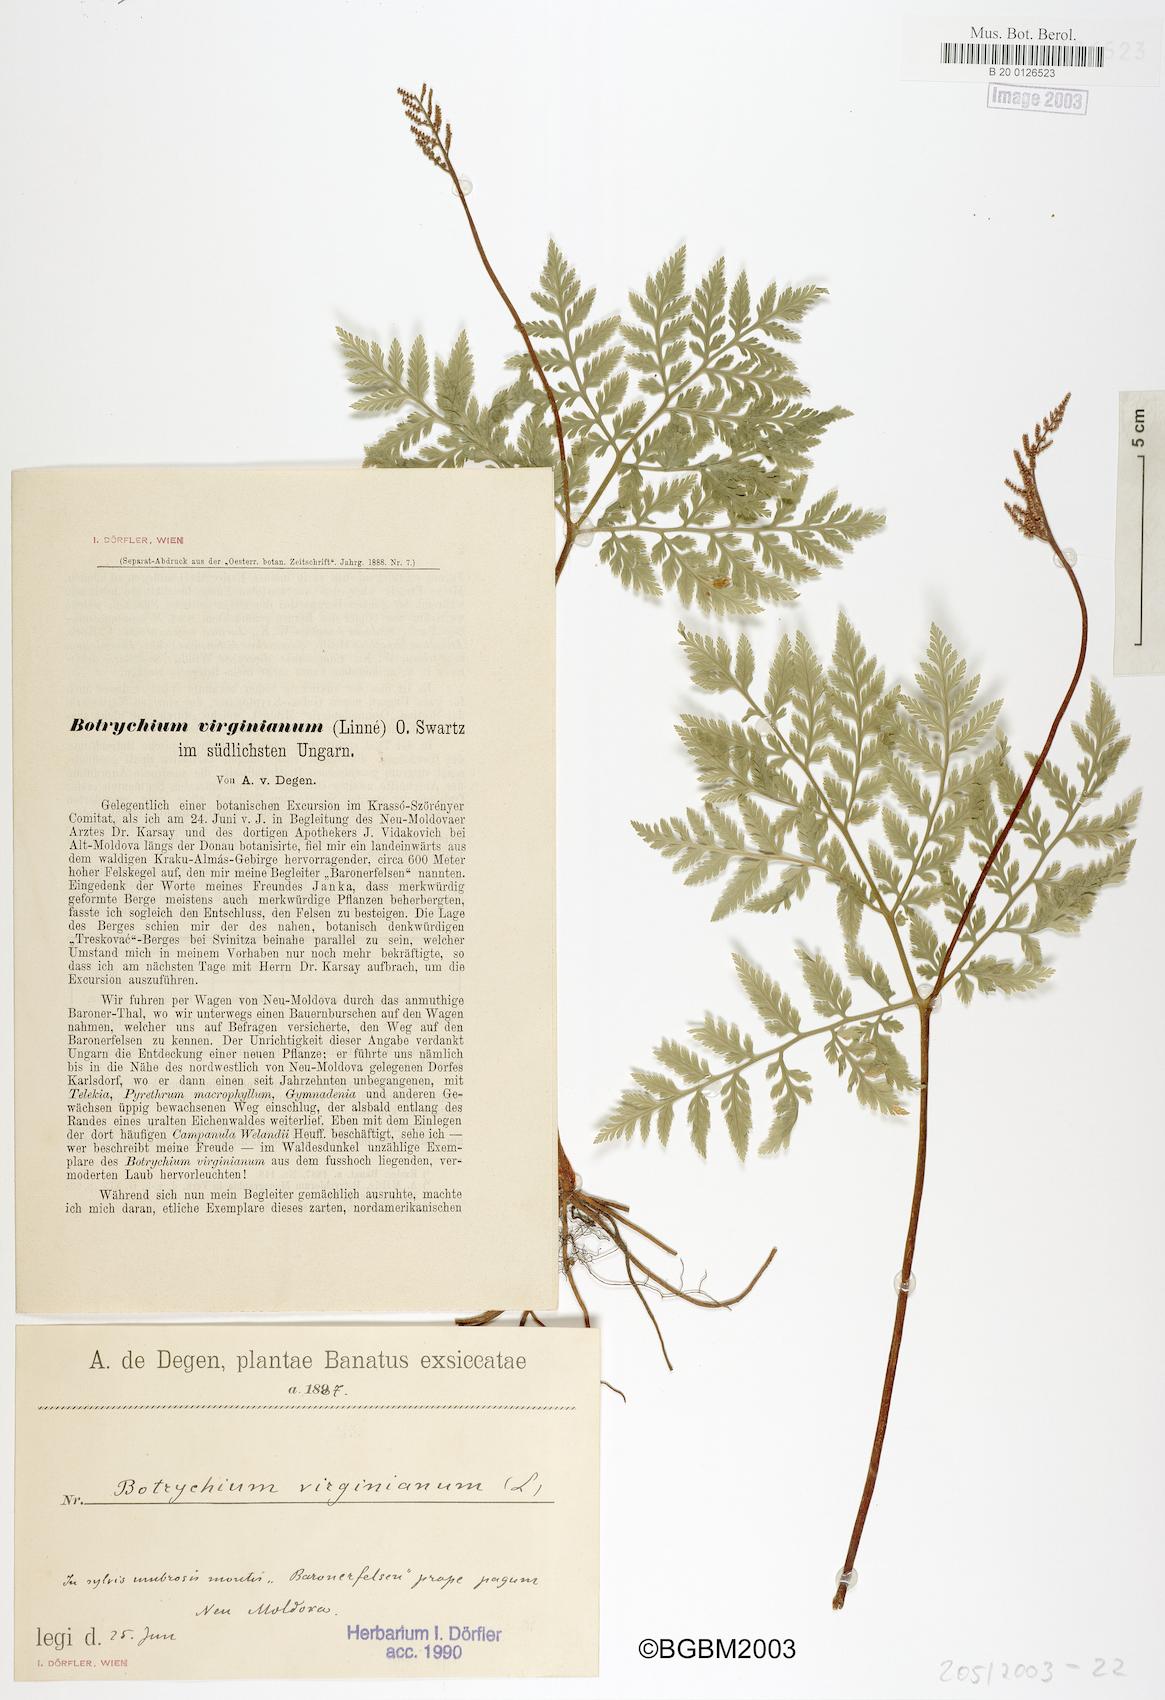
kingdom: Plantae
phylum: Tracheophyta
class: Polypodiopsida
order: Ophioglossales
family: Ophioglossaceae
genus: Botrypus
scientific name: Botrypus virginianus
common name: Common grapefern
